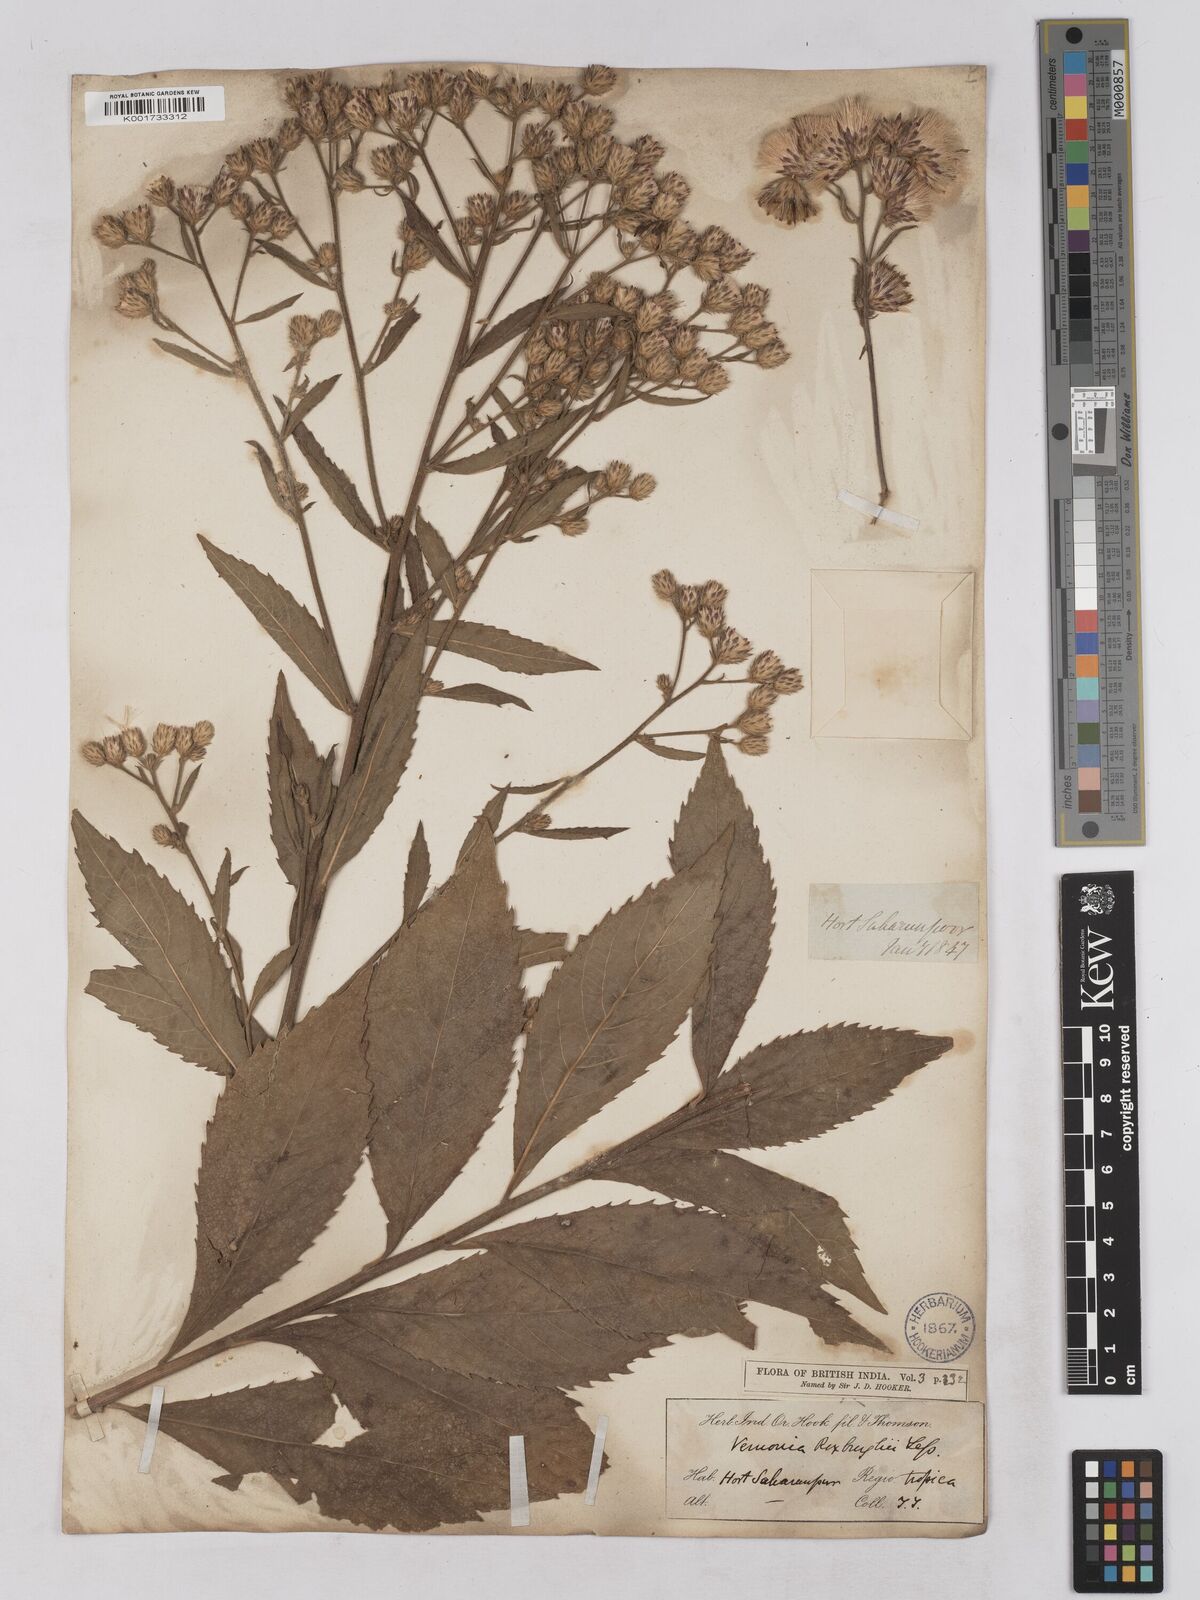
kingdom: Plantae
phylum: Tracheophyta
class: Magnoliopsida
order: Asterales
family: Asteraceae
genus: Acilepis
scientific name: Acilepis aspera
